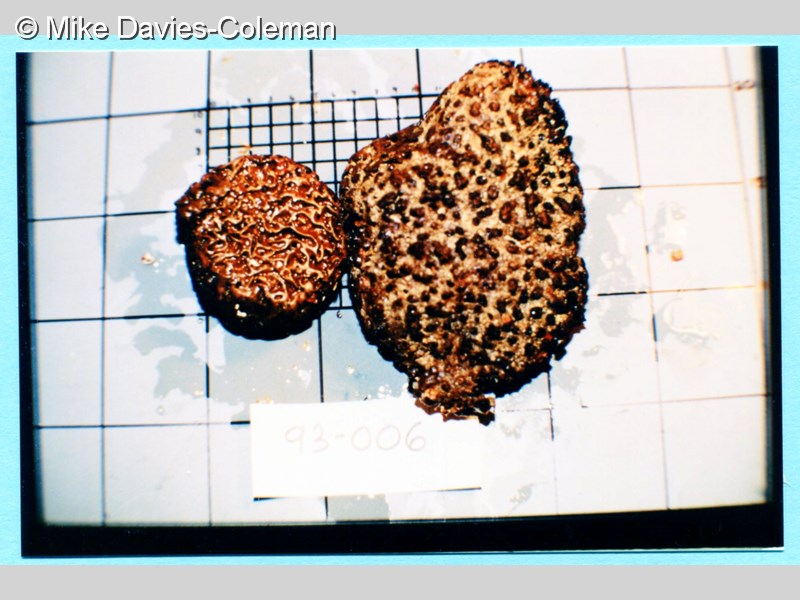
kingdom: Animalia
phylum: Porifera
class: Demospongiae
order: Poecilosclerida
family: Latrunculiidae
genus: Tsitsikamma
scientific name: Tsitsikamma favus
